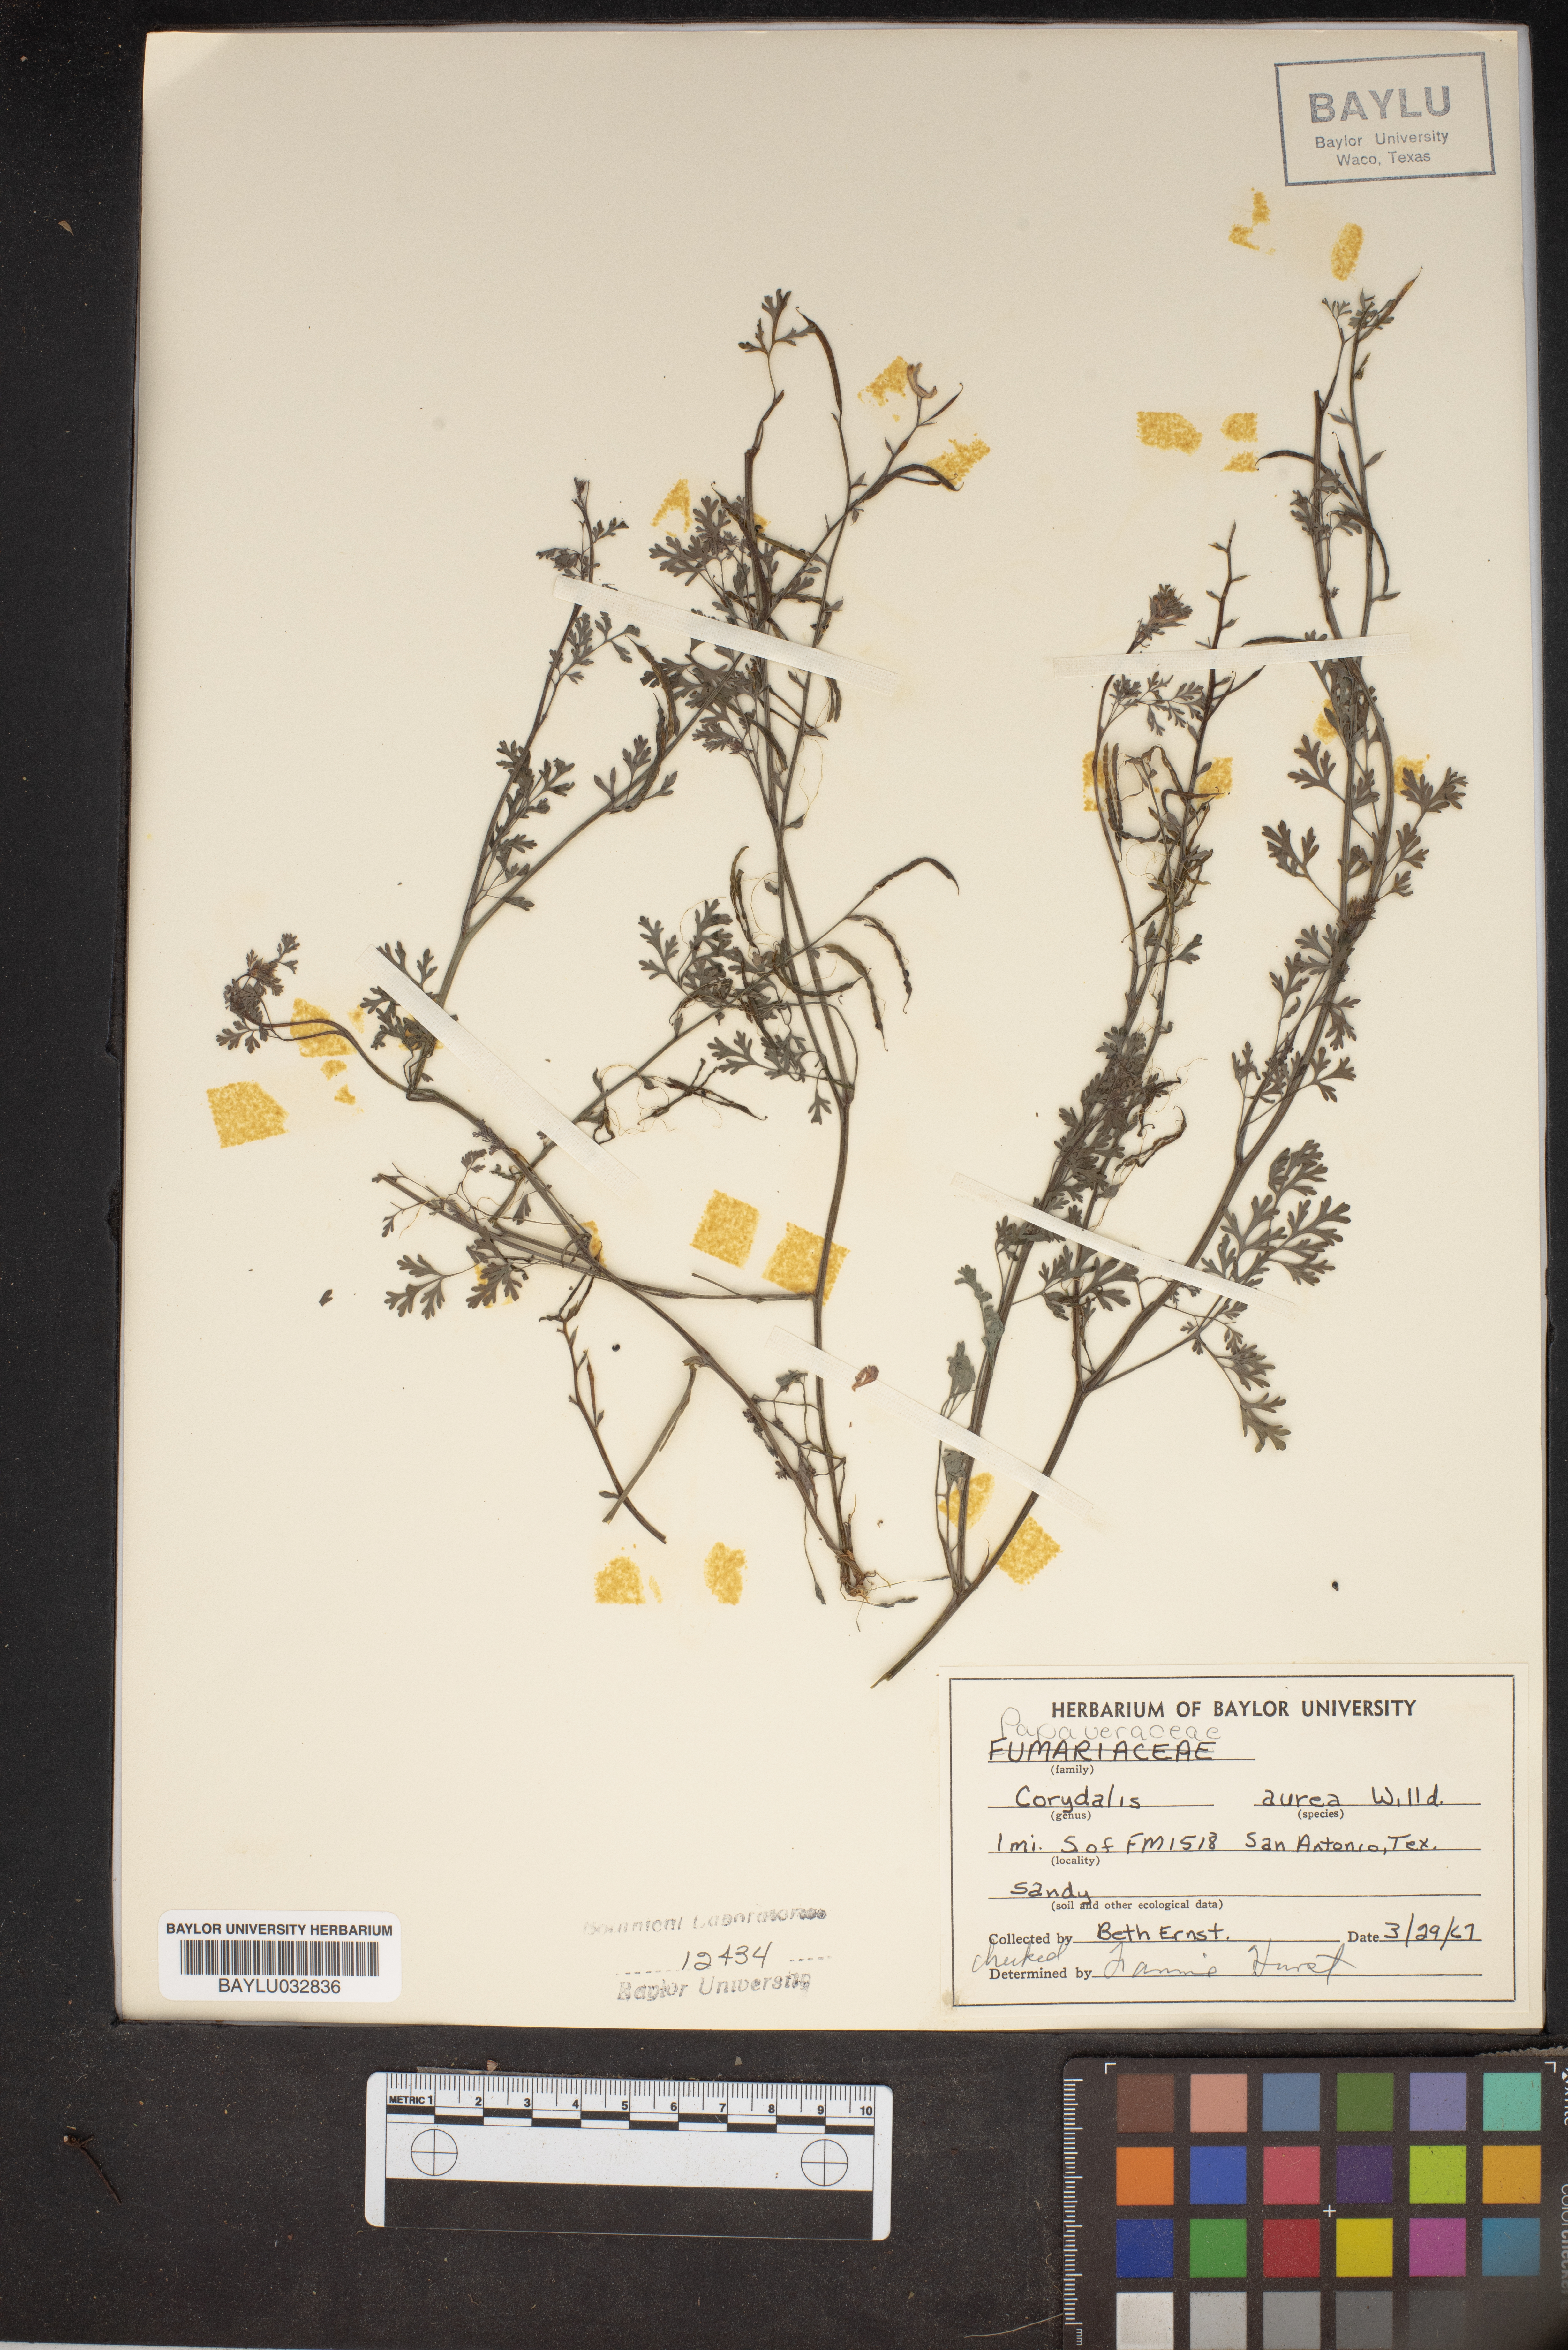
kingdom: Plantae
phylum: Tracheophyta
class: Magnoliopsida
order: Ranunculales
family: Papaveraceae
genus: Corydalis
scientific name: Corydalis aurea
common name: Golden corydalis
